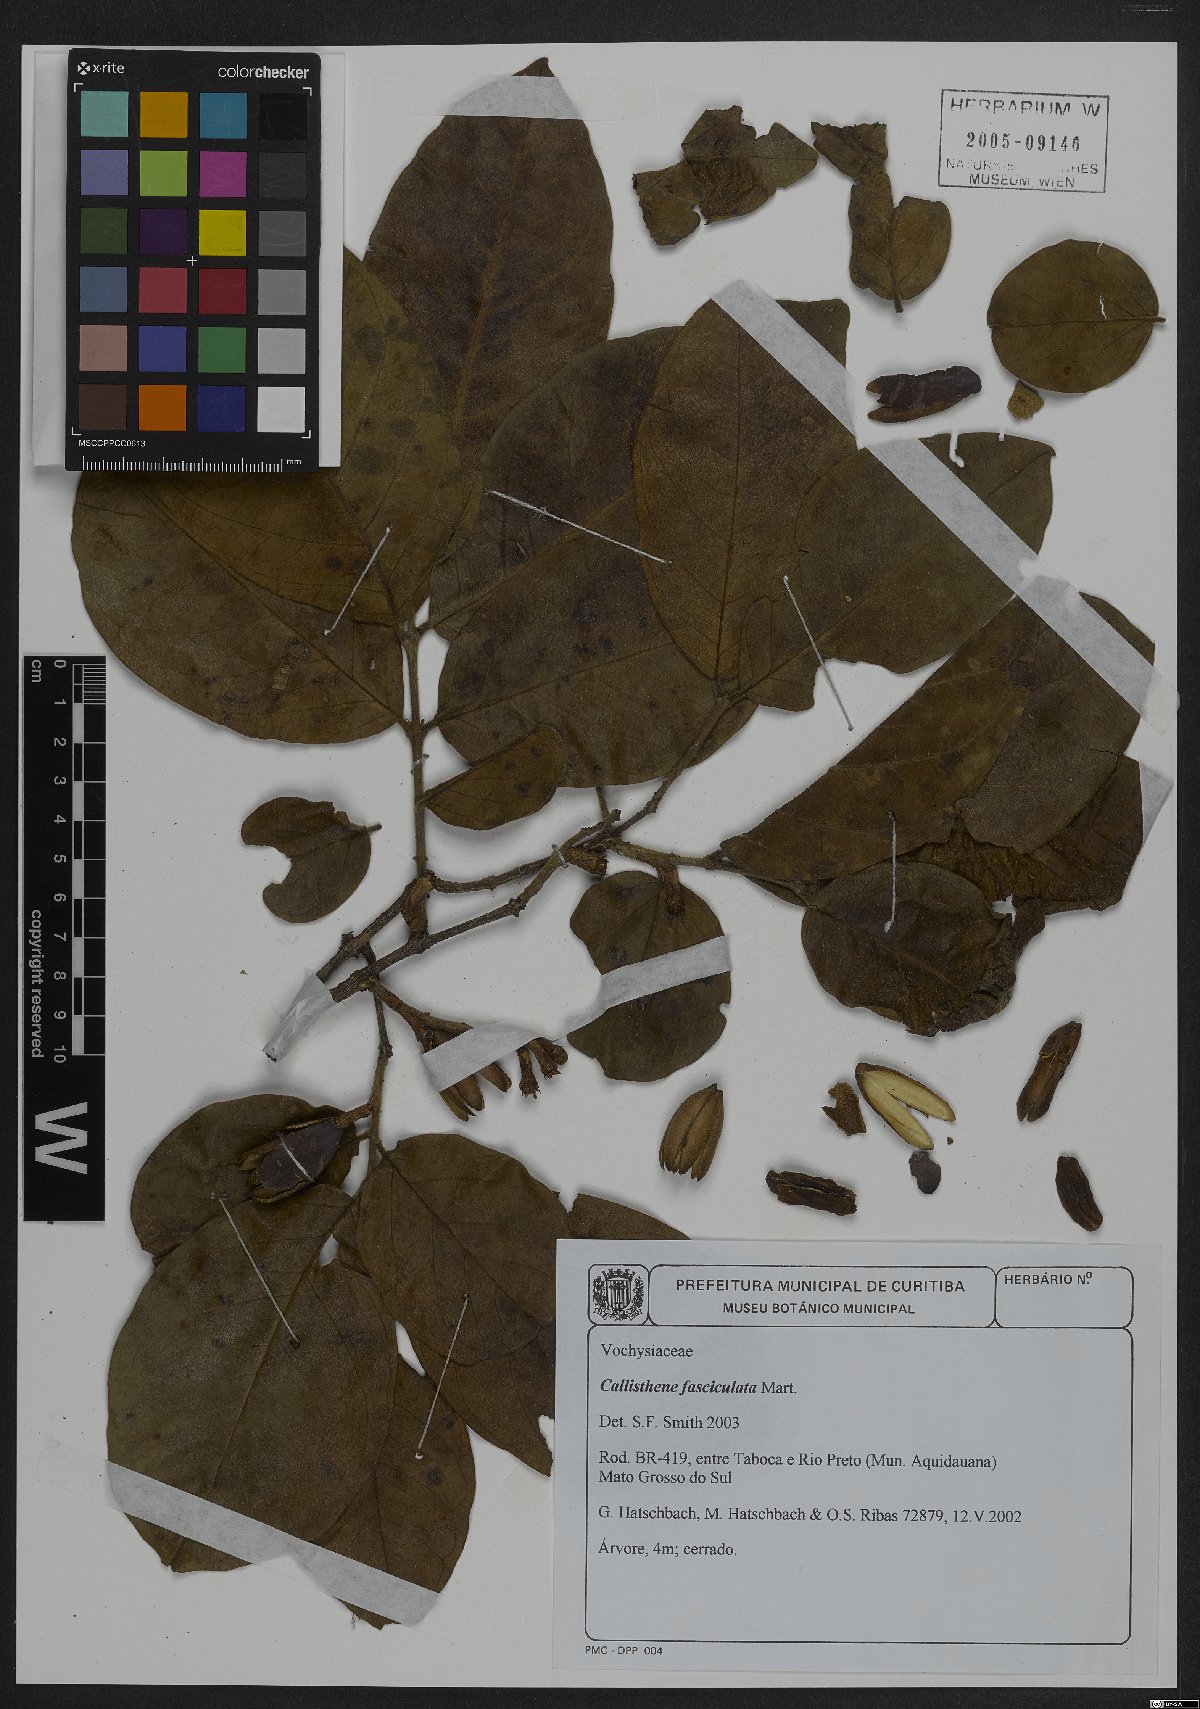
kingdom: Plantae
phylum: Tracheophyta
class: Magnoliopsida
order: Myrtales
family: Vochysiaceae
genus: Callisthene
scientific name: Callisthene fasciculata
